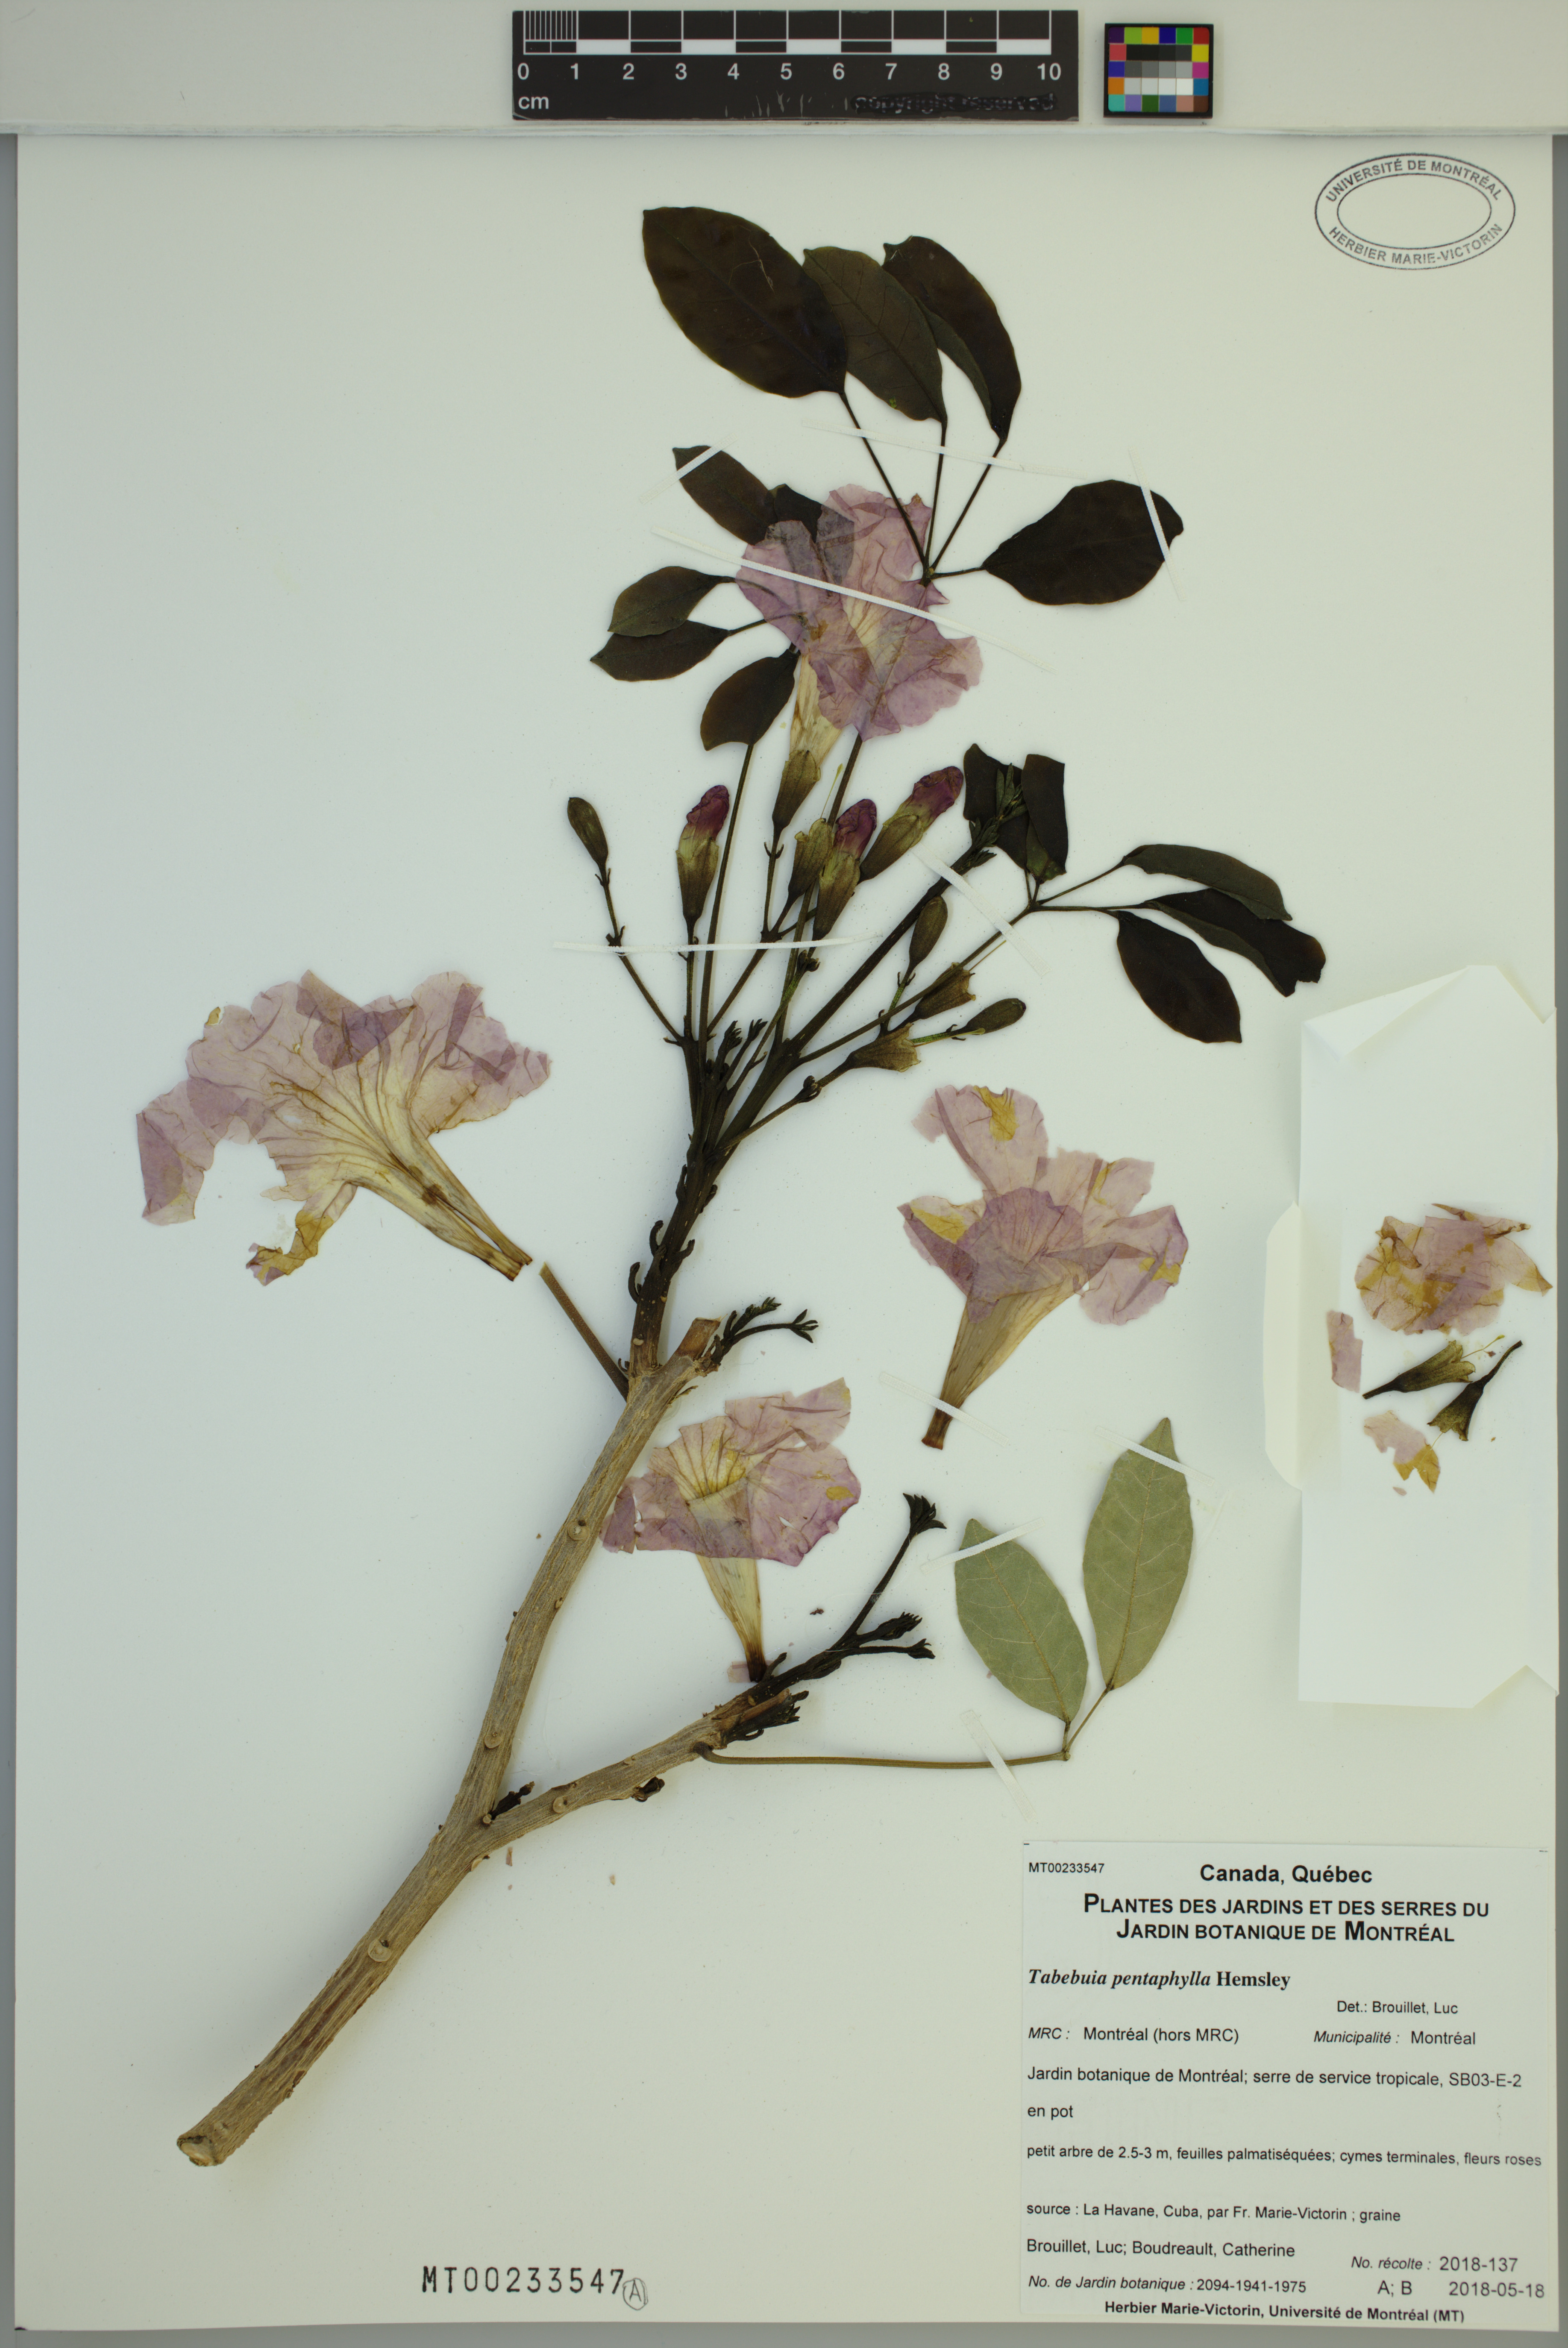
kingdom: Plantae
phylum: Tracheophyta
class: Magnoliopsida
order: Lamiales
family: Bignoniaceae
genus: Tabebuia
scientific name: Tabebuia heterophylla
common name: White cedar
